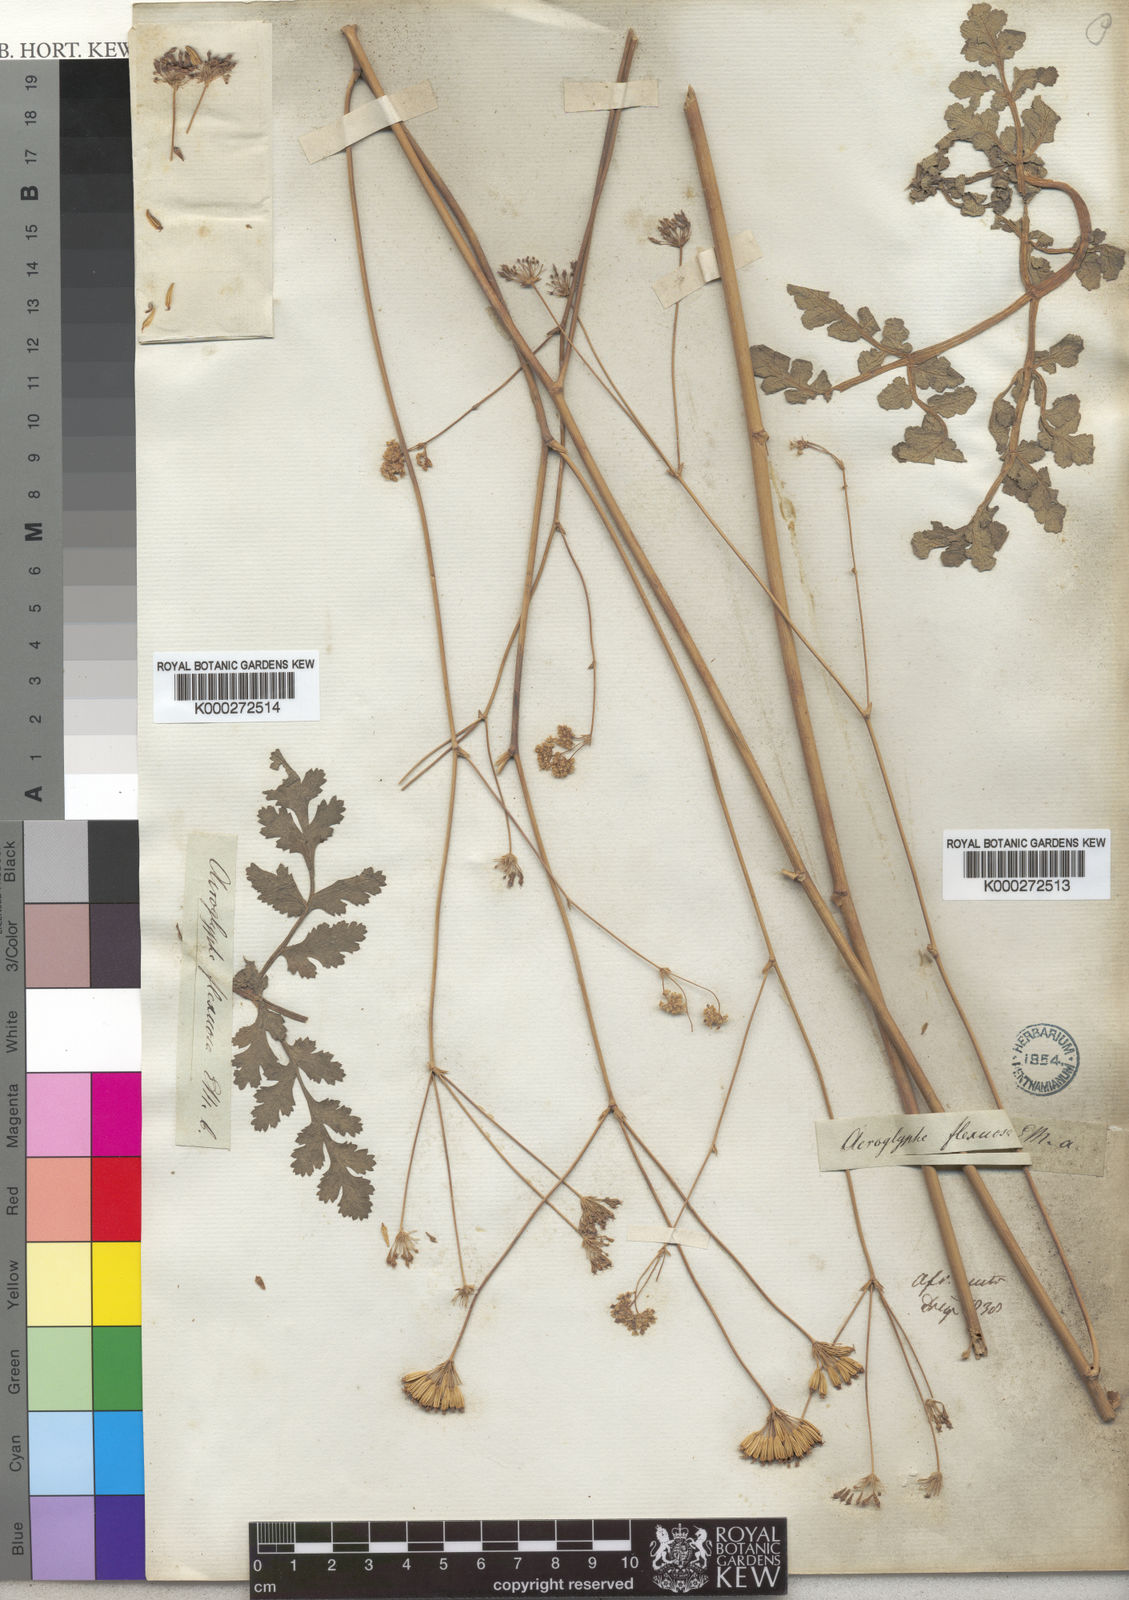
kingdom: Plantae
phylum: Tracheophyta
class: Magnoliopsida
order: Apiales
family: Apiaceae
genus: Annesorhiza
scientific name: Annesorhiza nuda
